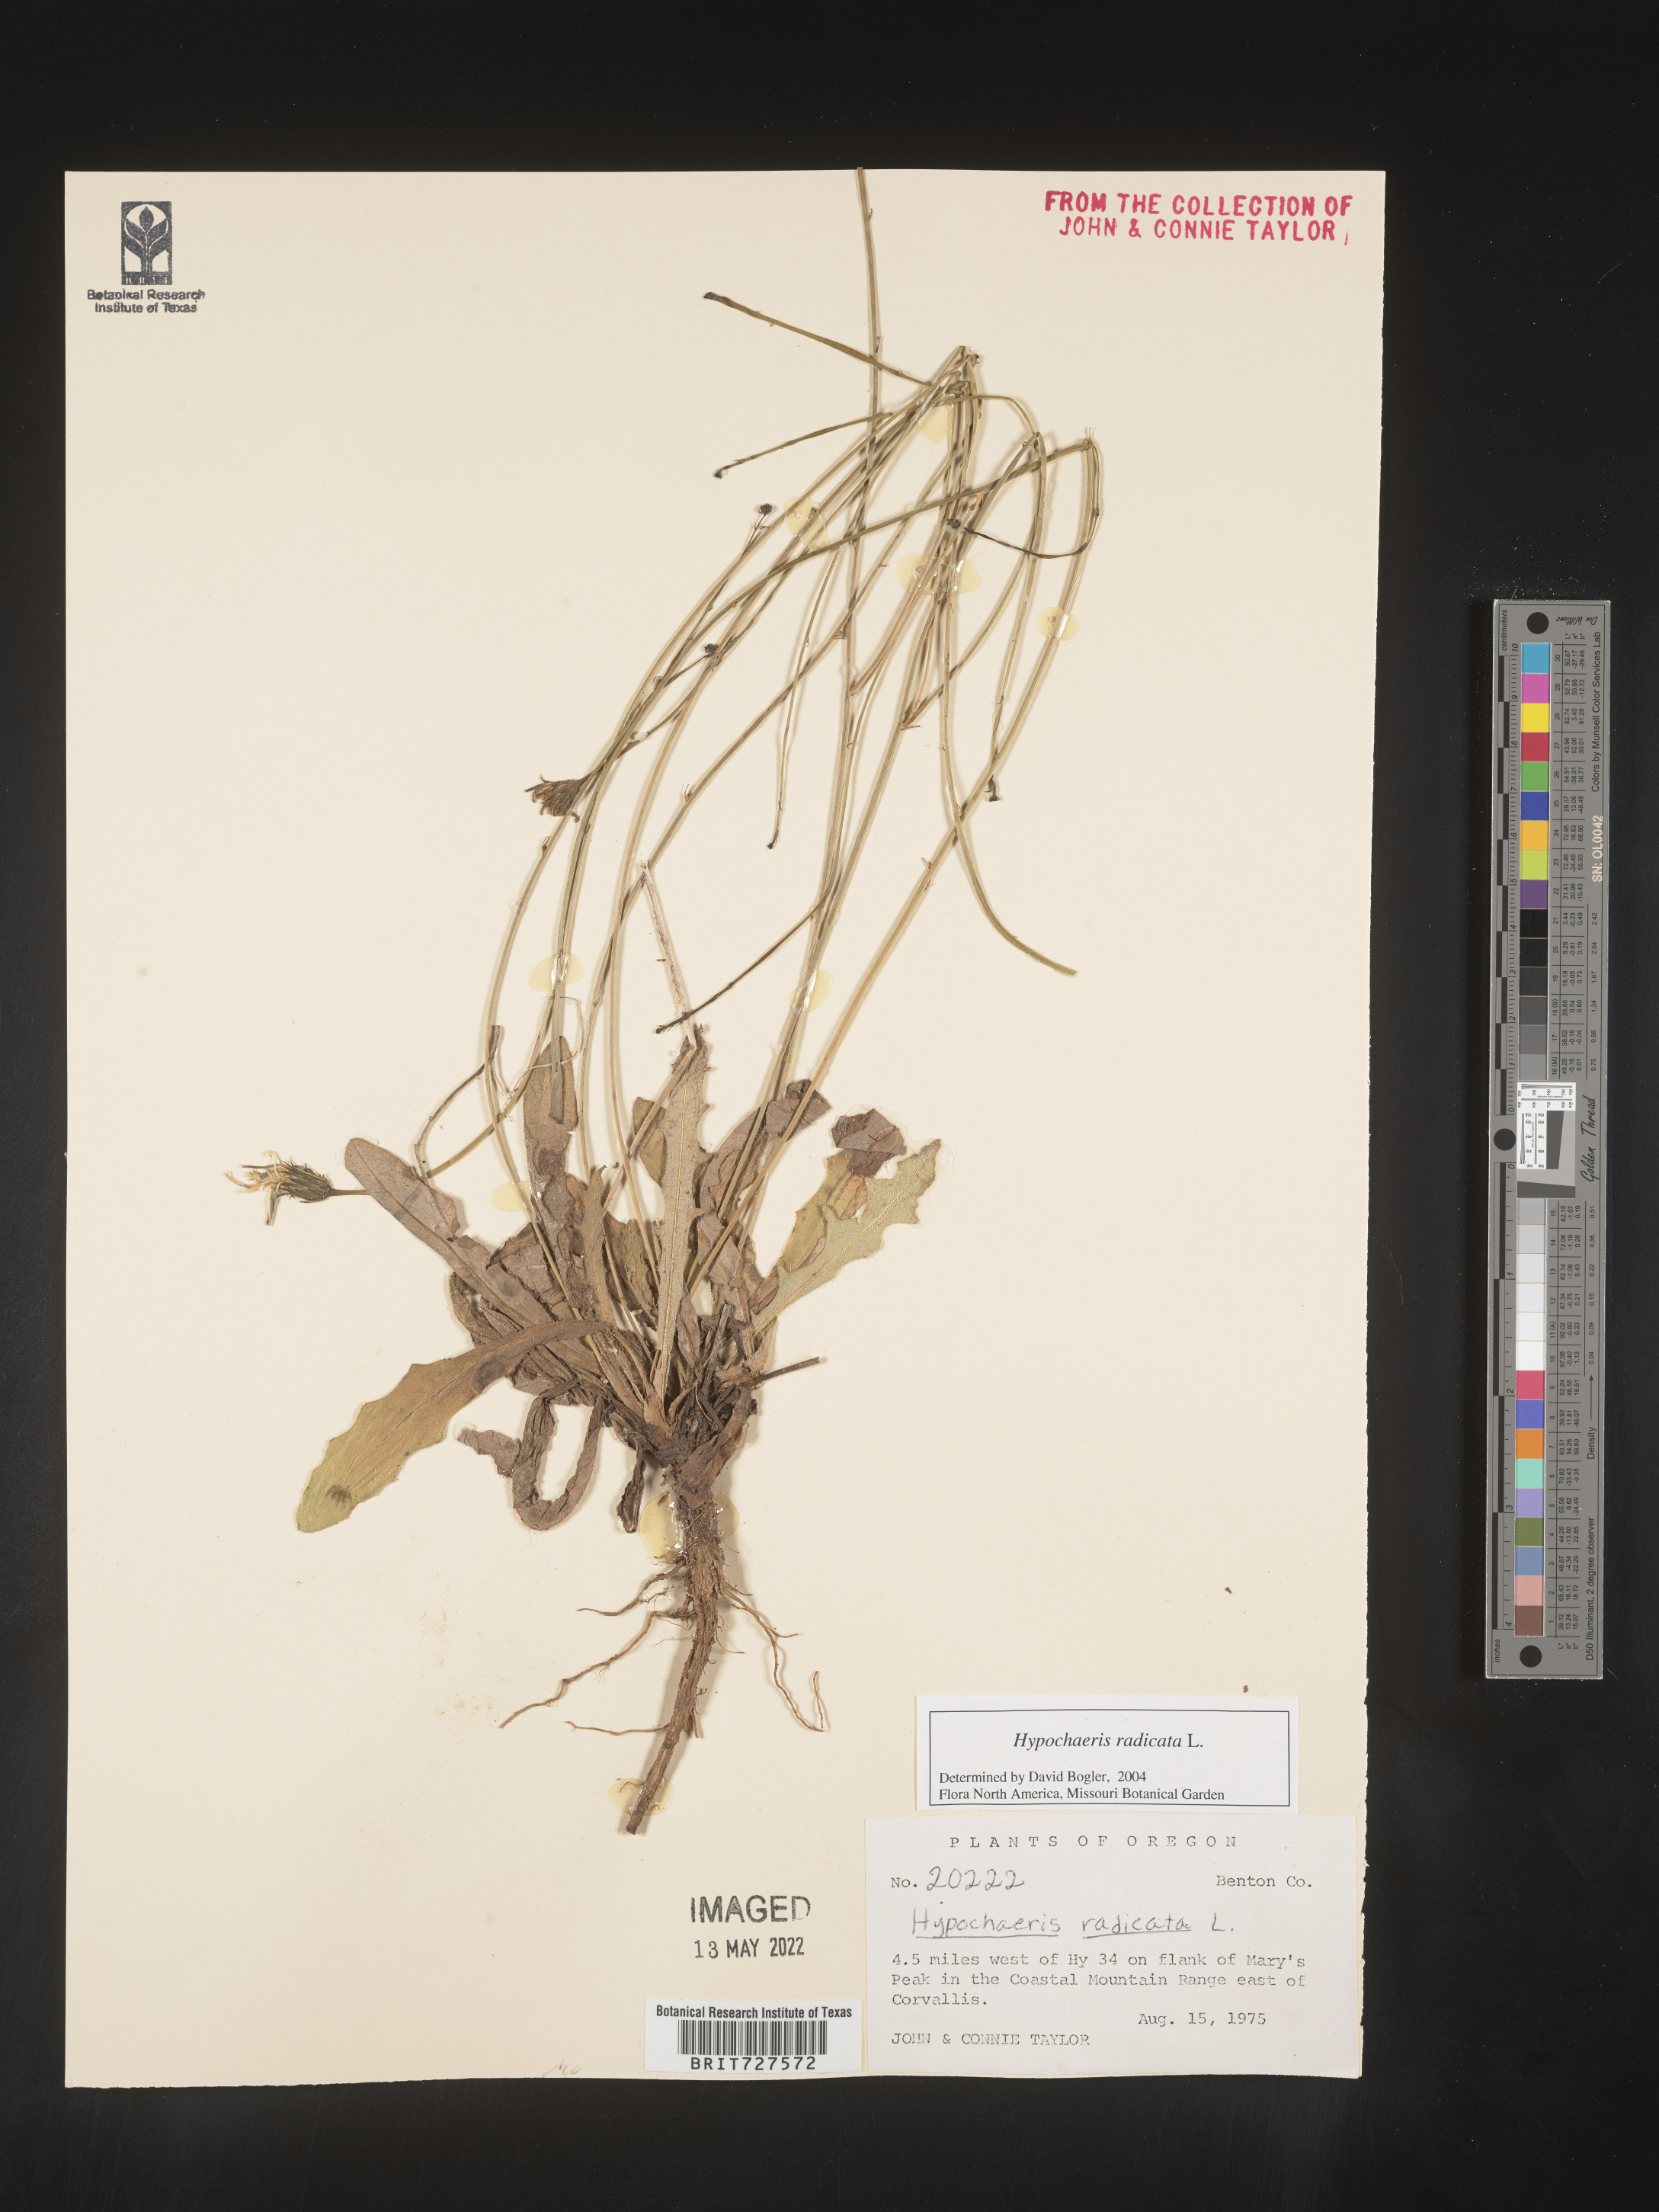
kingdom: Plantae
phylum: Tracheophyta
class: Magnoliopsida
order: Asterales
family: Asteraceae
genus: Hypochaeris
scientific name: Hypochaeris radicata
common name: Flatweed
